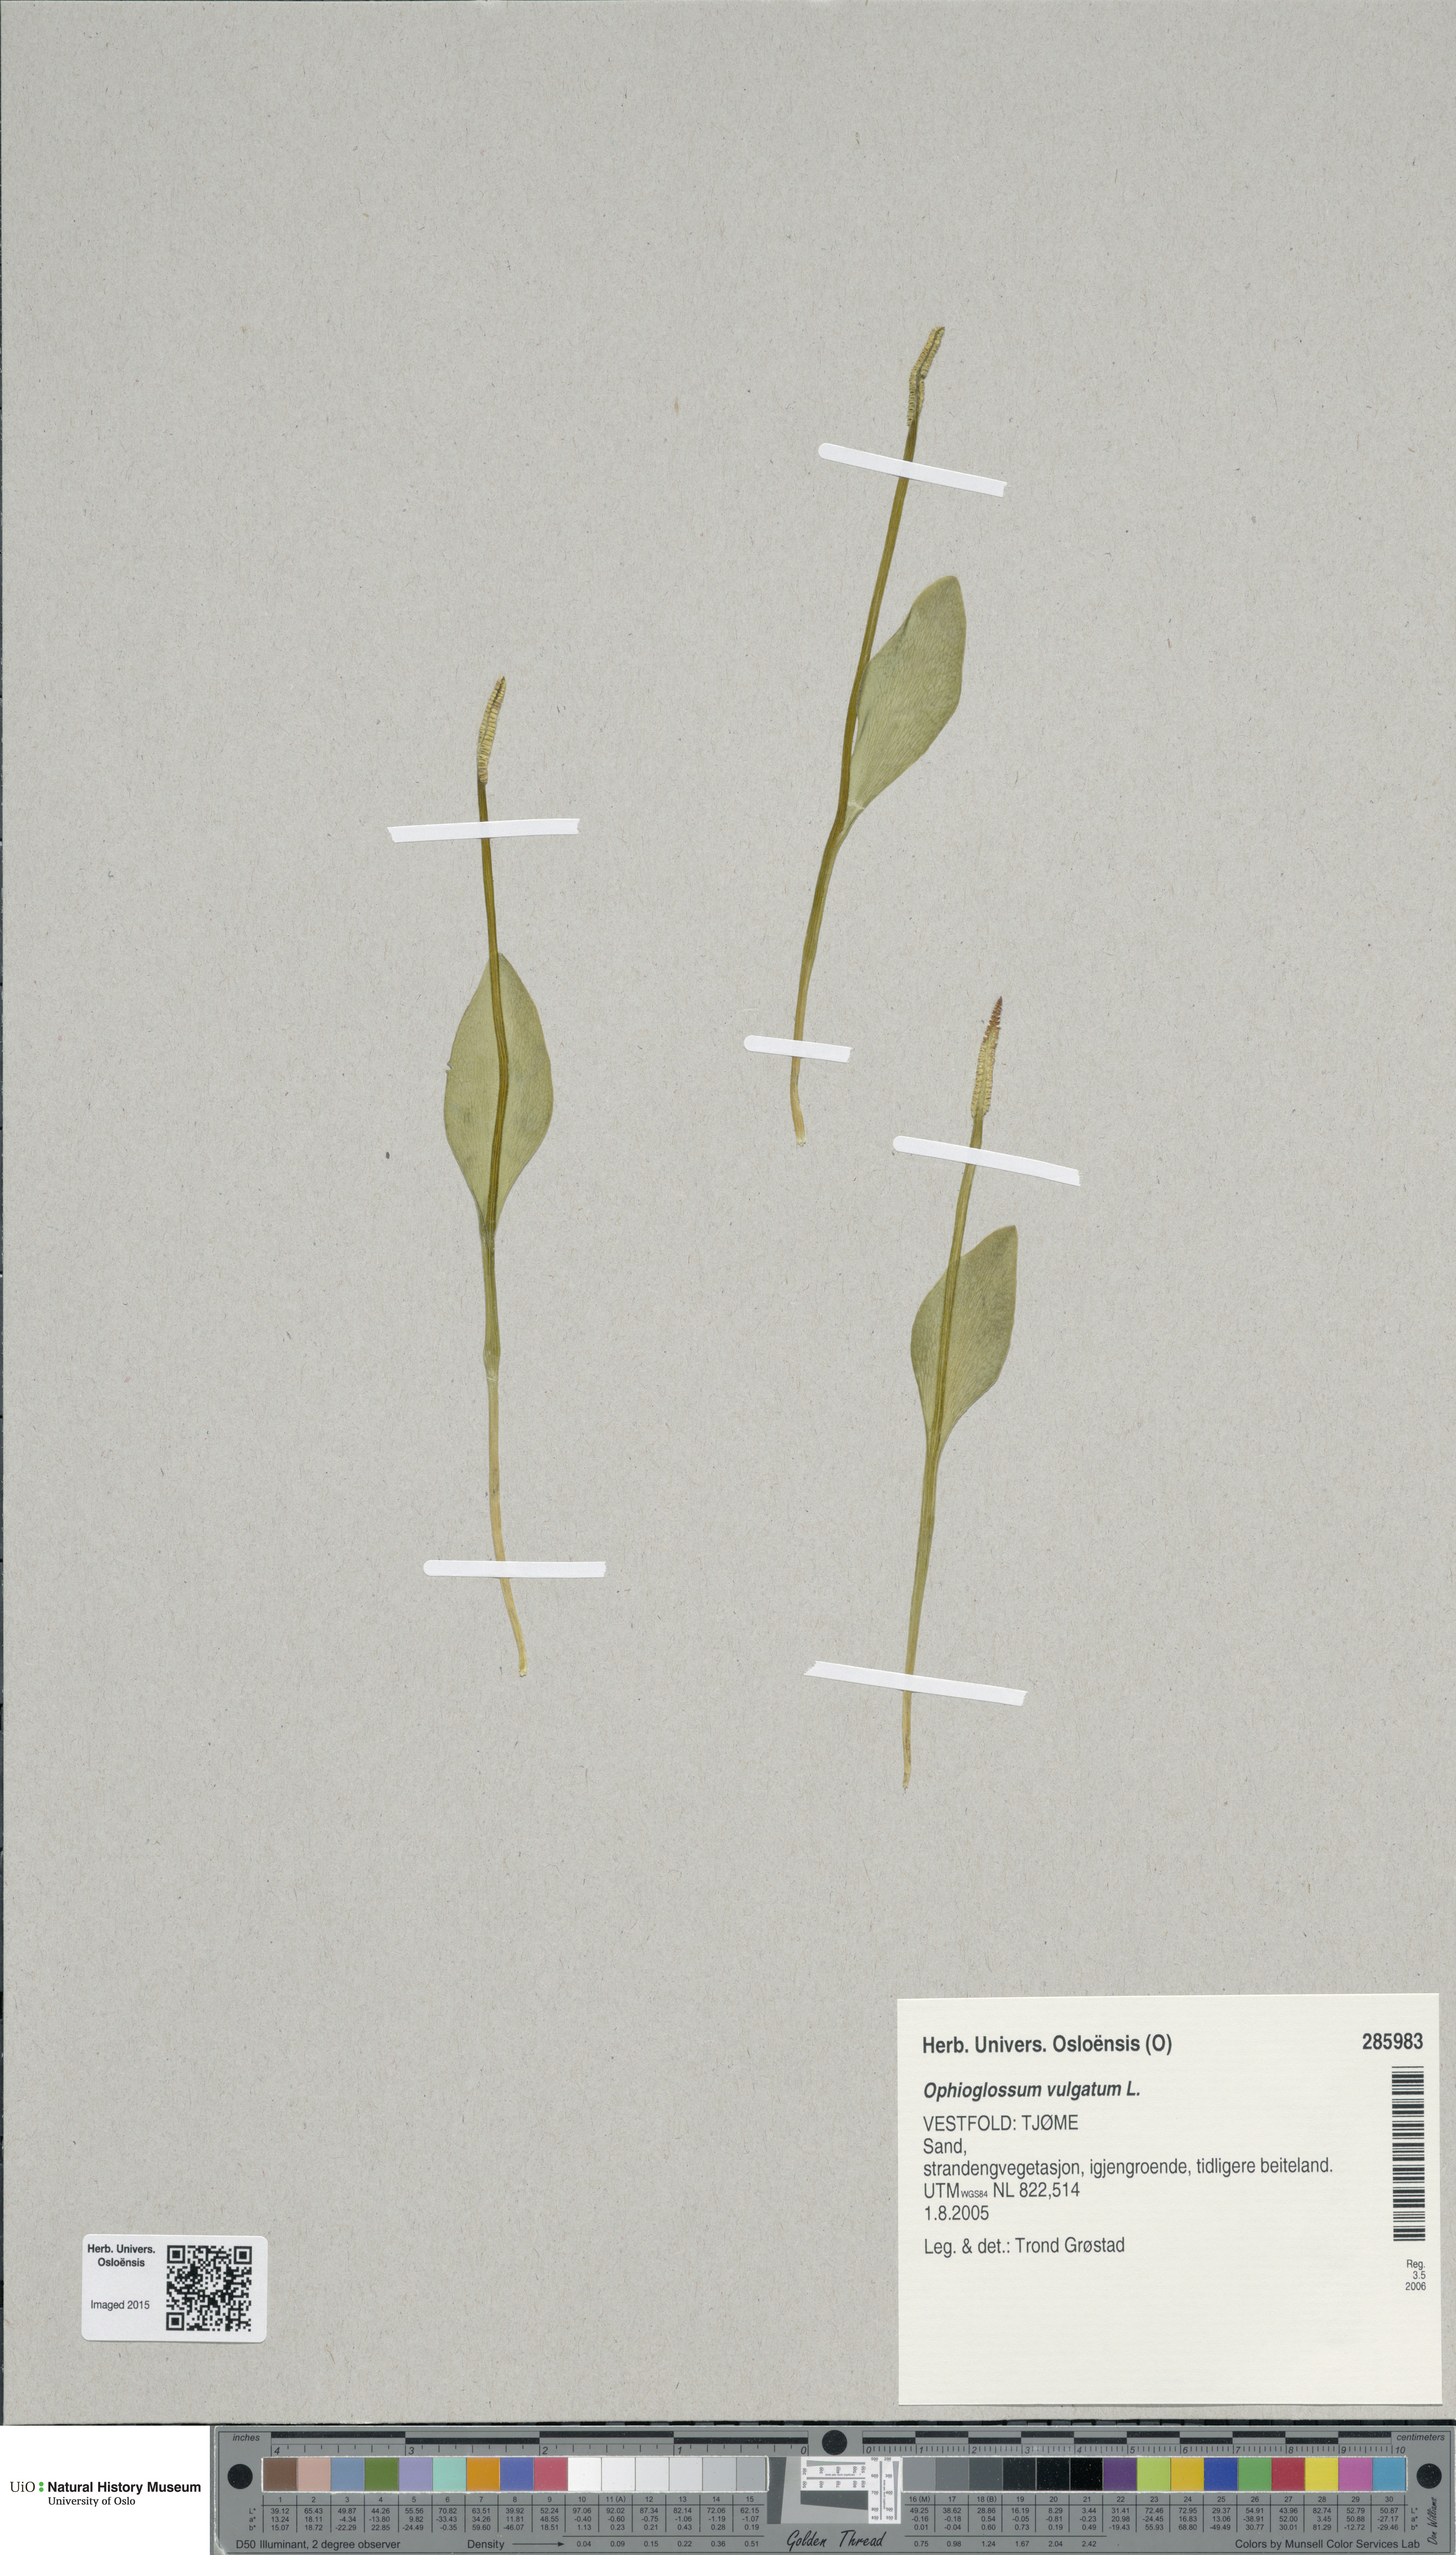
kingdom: Plantae
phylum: Tracheophyta
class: Polypodiopsida
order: Ophioglossales
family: Ophioglossaceae
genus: Ophioglossum
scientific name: Ophioglossum vulgatum
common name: Adder's-tongue
